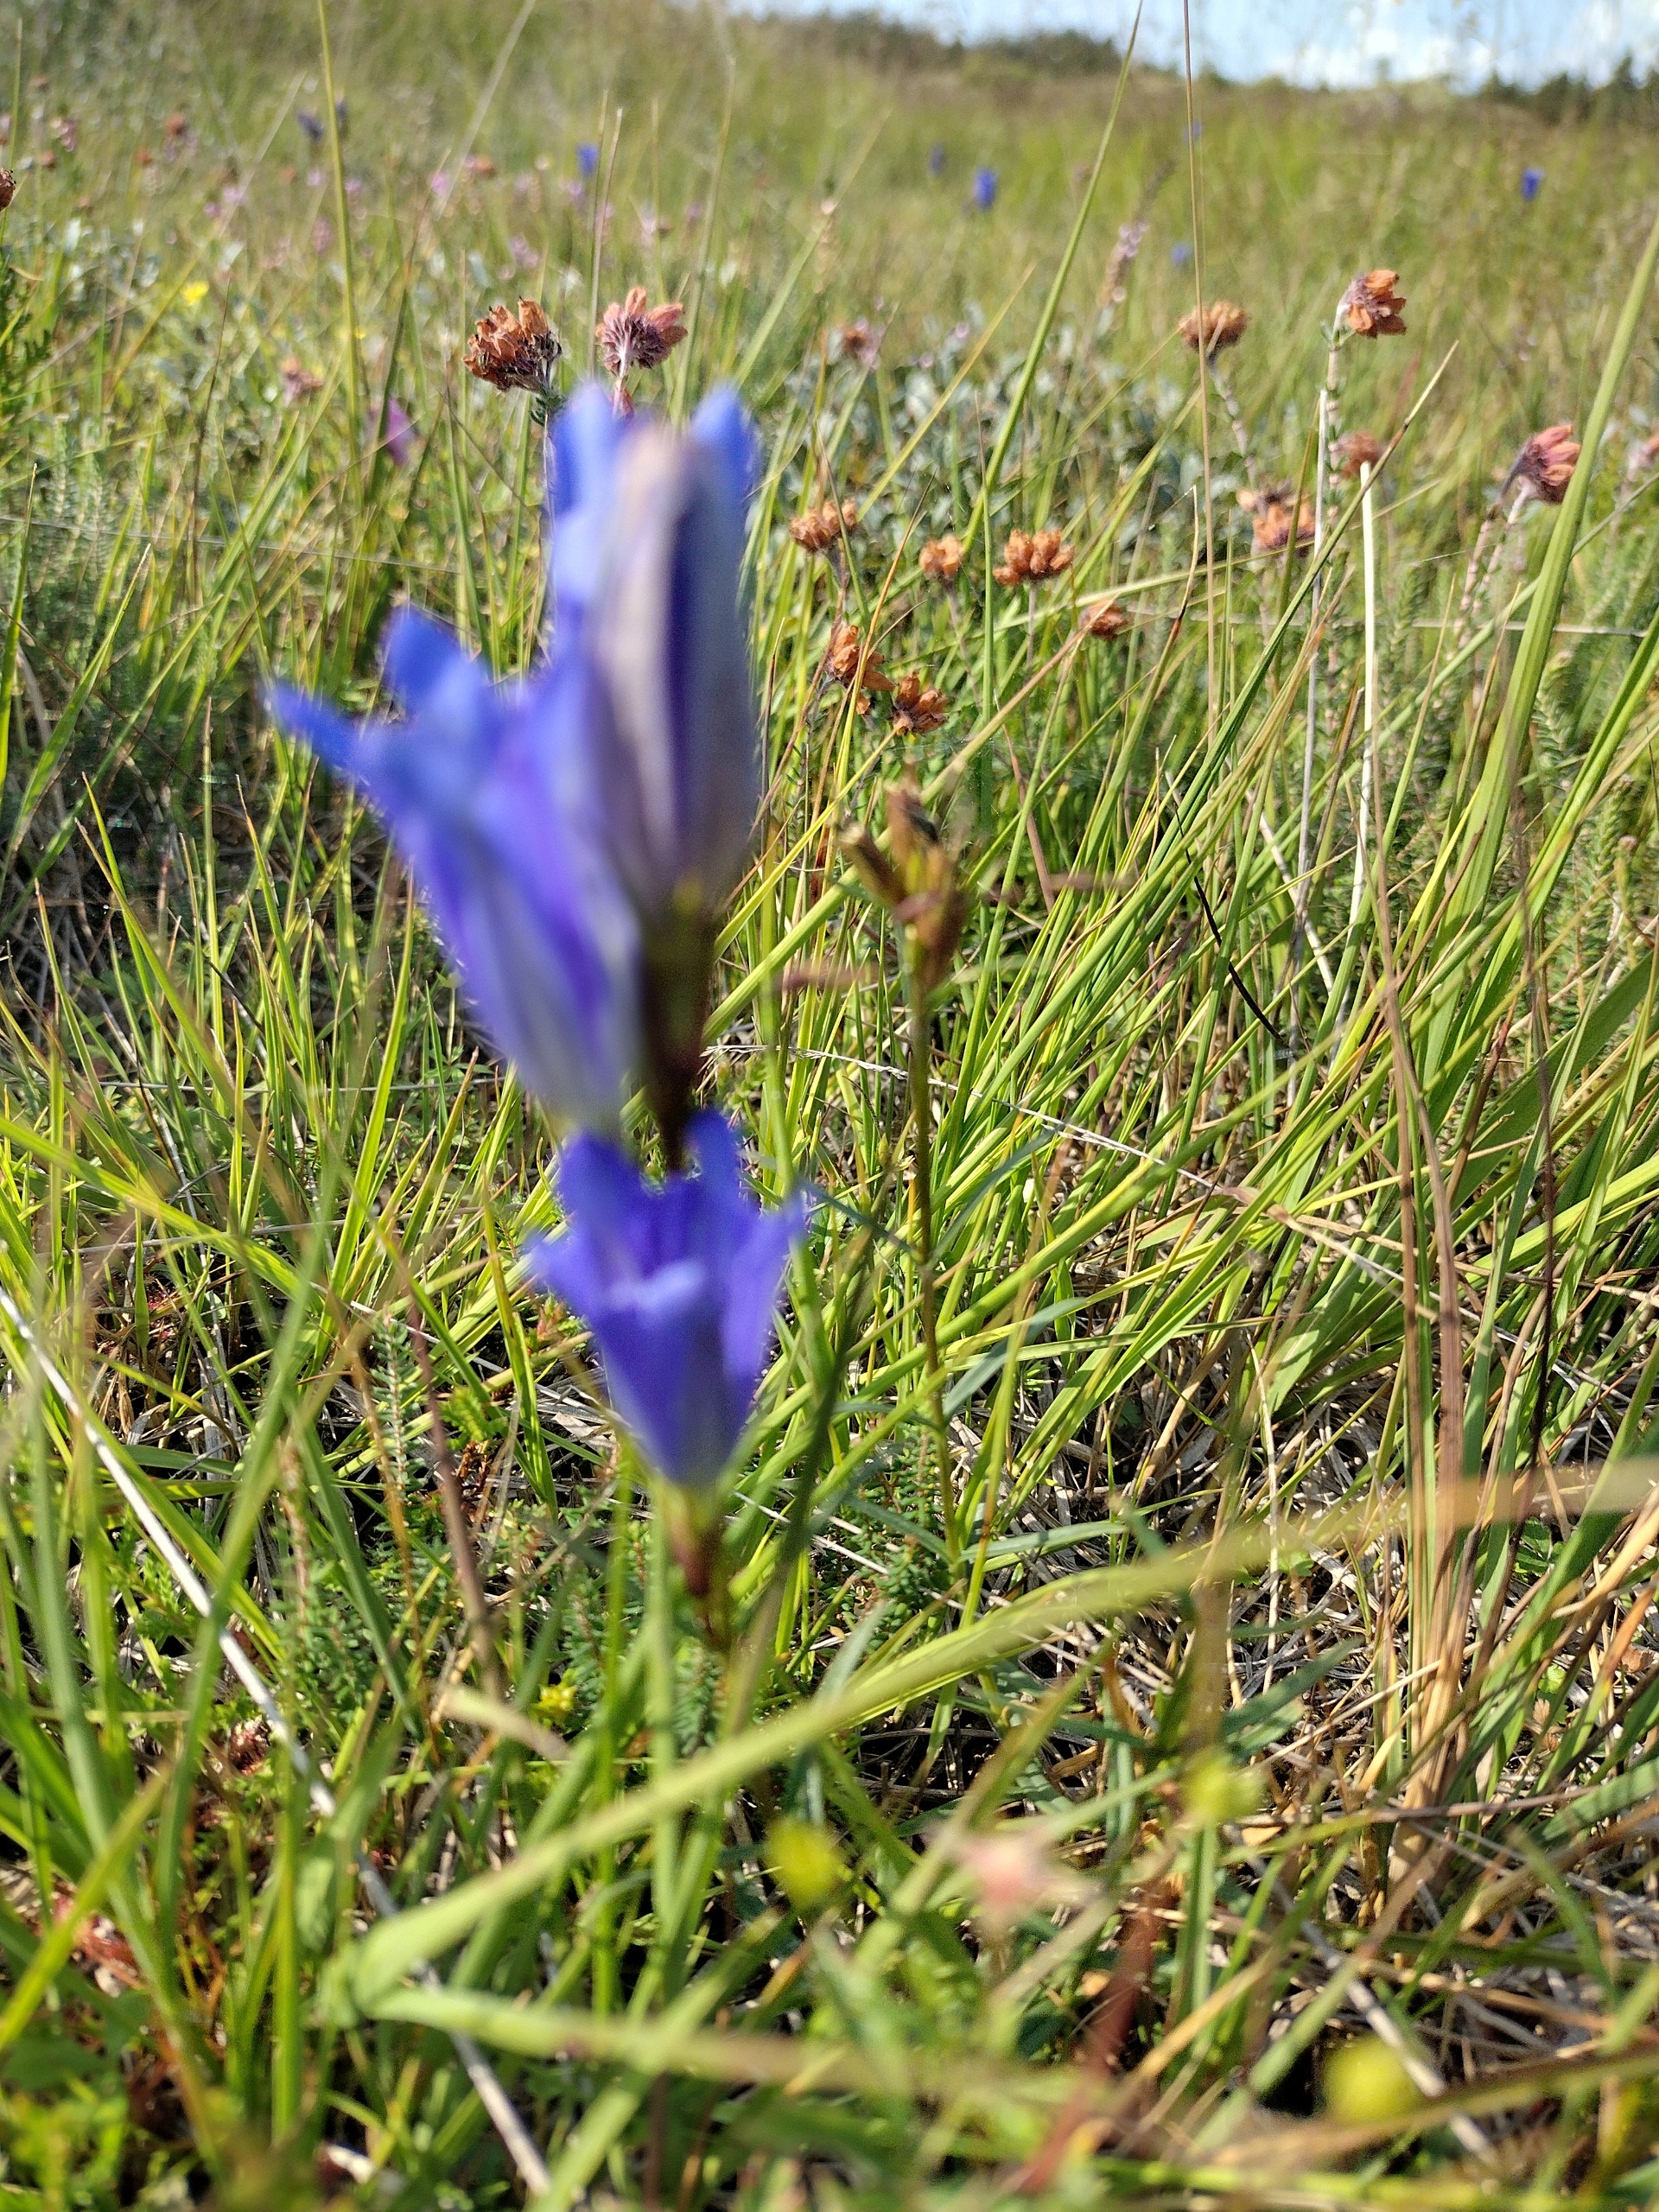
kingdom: Plantae
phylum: Tracheophyta
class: Magnoliopsida
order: Gentianales
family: Gentianaceae
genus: Gentiana
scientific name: Gentiana pneumonanthe
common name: Klokke-ensian
